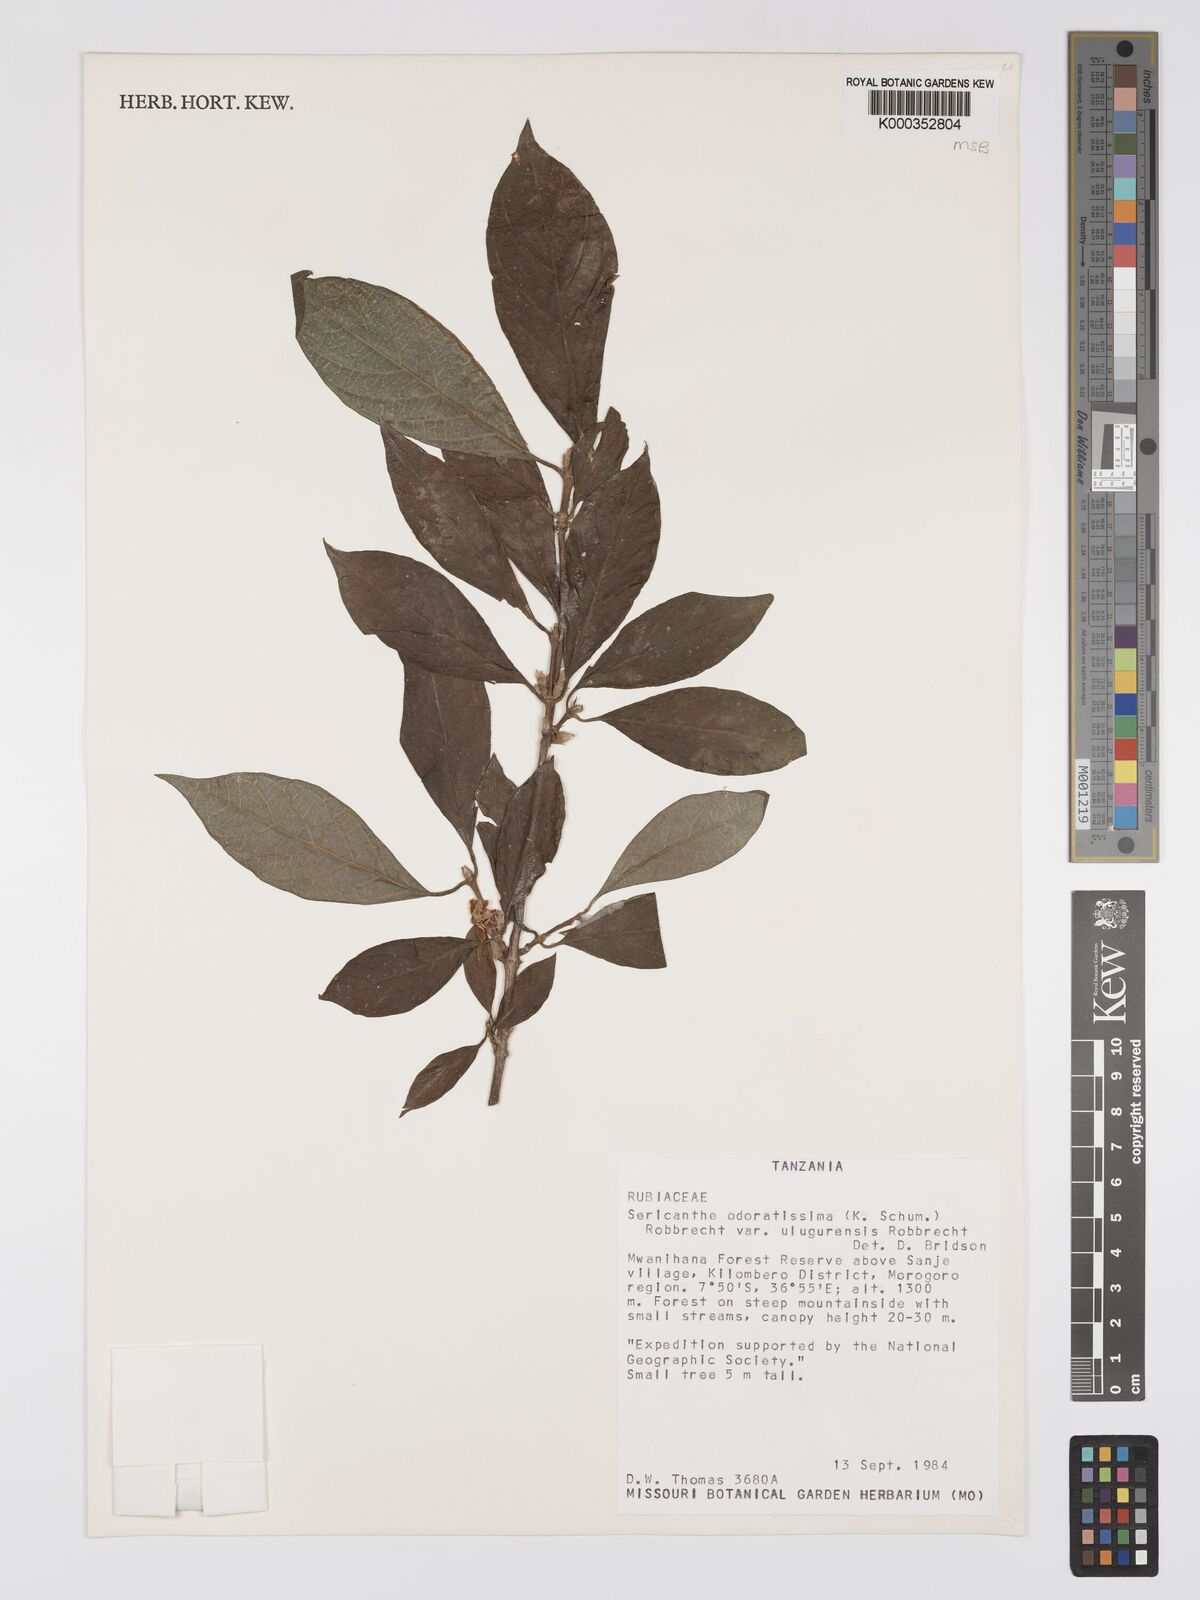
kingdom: Plantae
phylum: Tracheophyta
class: Magnoliopsida
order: Gentianales
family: Rubiaceae
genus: Sericanthe
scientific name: Sericanthe odoratissima
